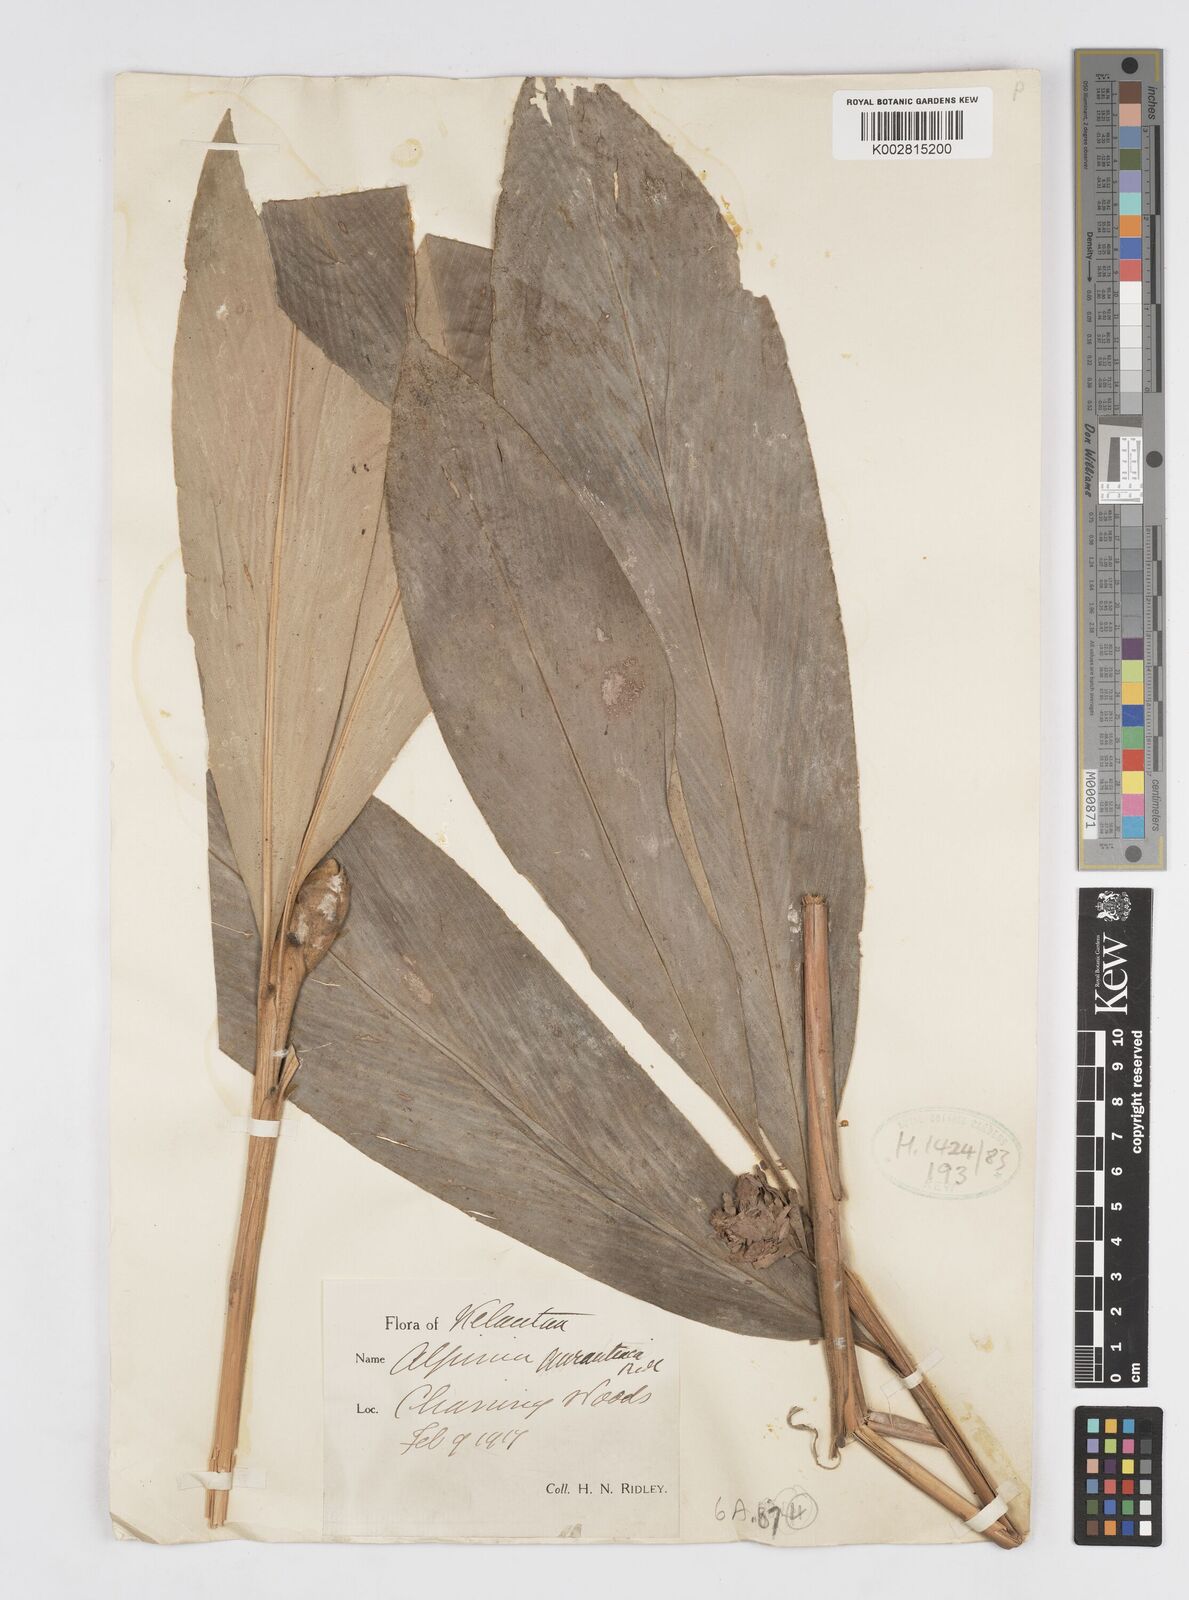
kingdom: Plantae
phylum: Tracheophyta
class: Liliopsida
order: Zingiberales
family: Zingiberaceae
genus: Alpinia
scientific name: Alpinia rafflesiana
